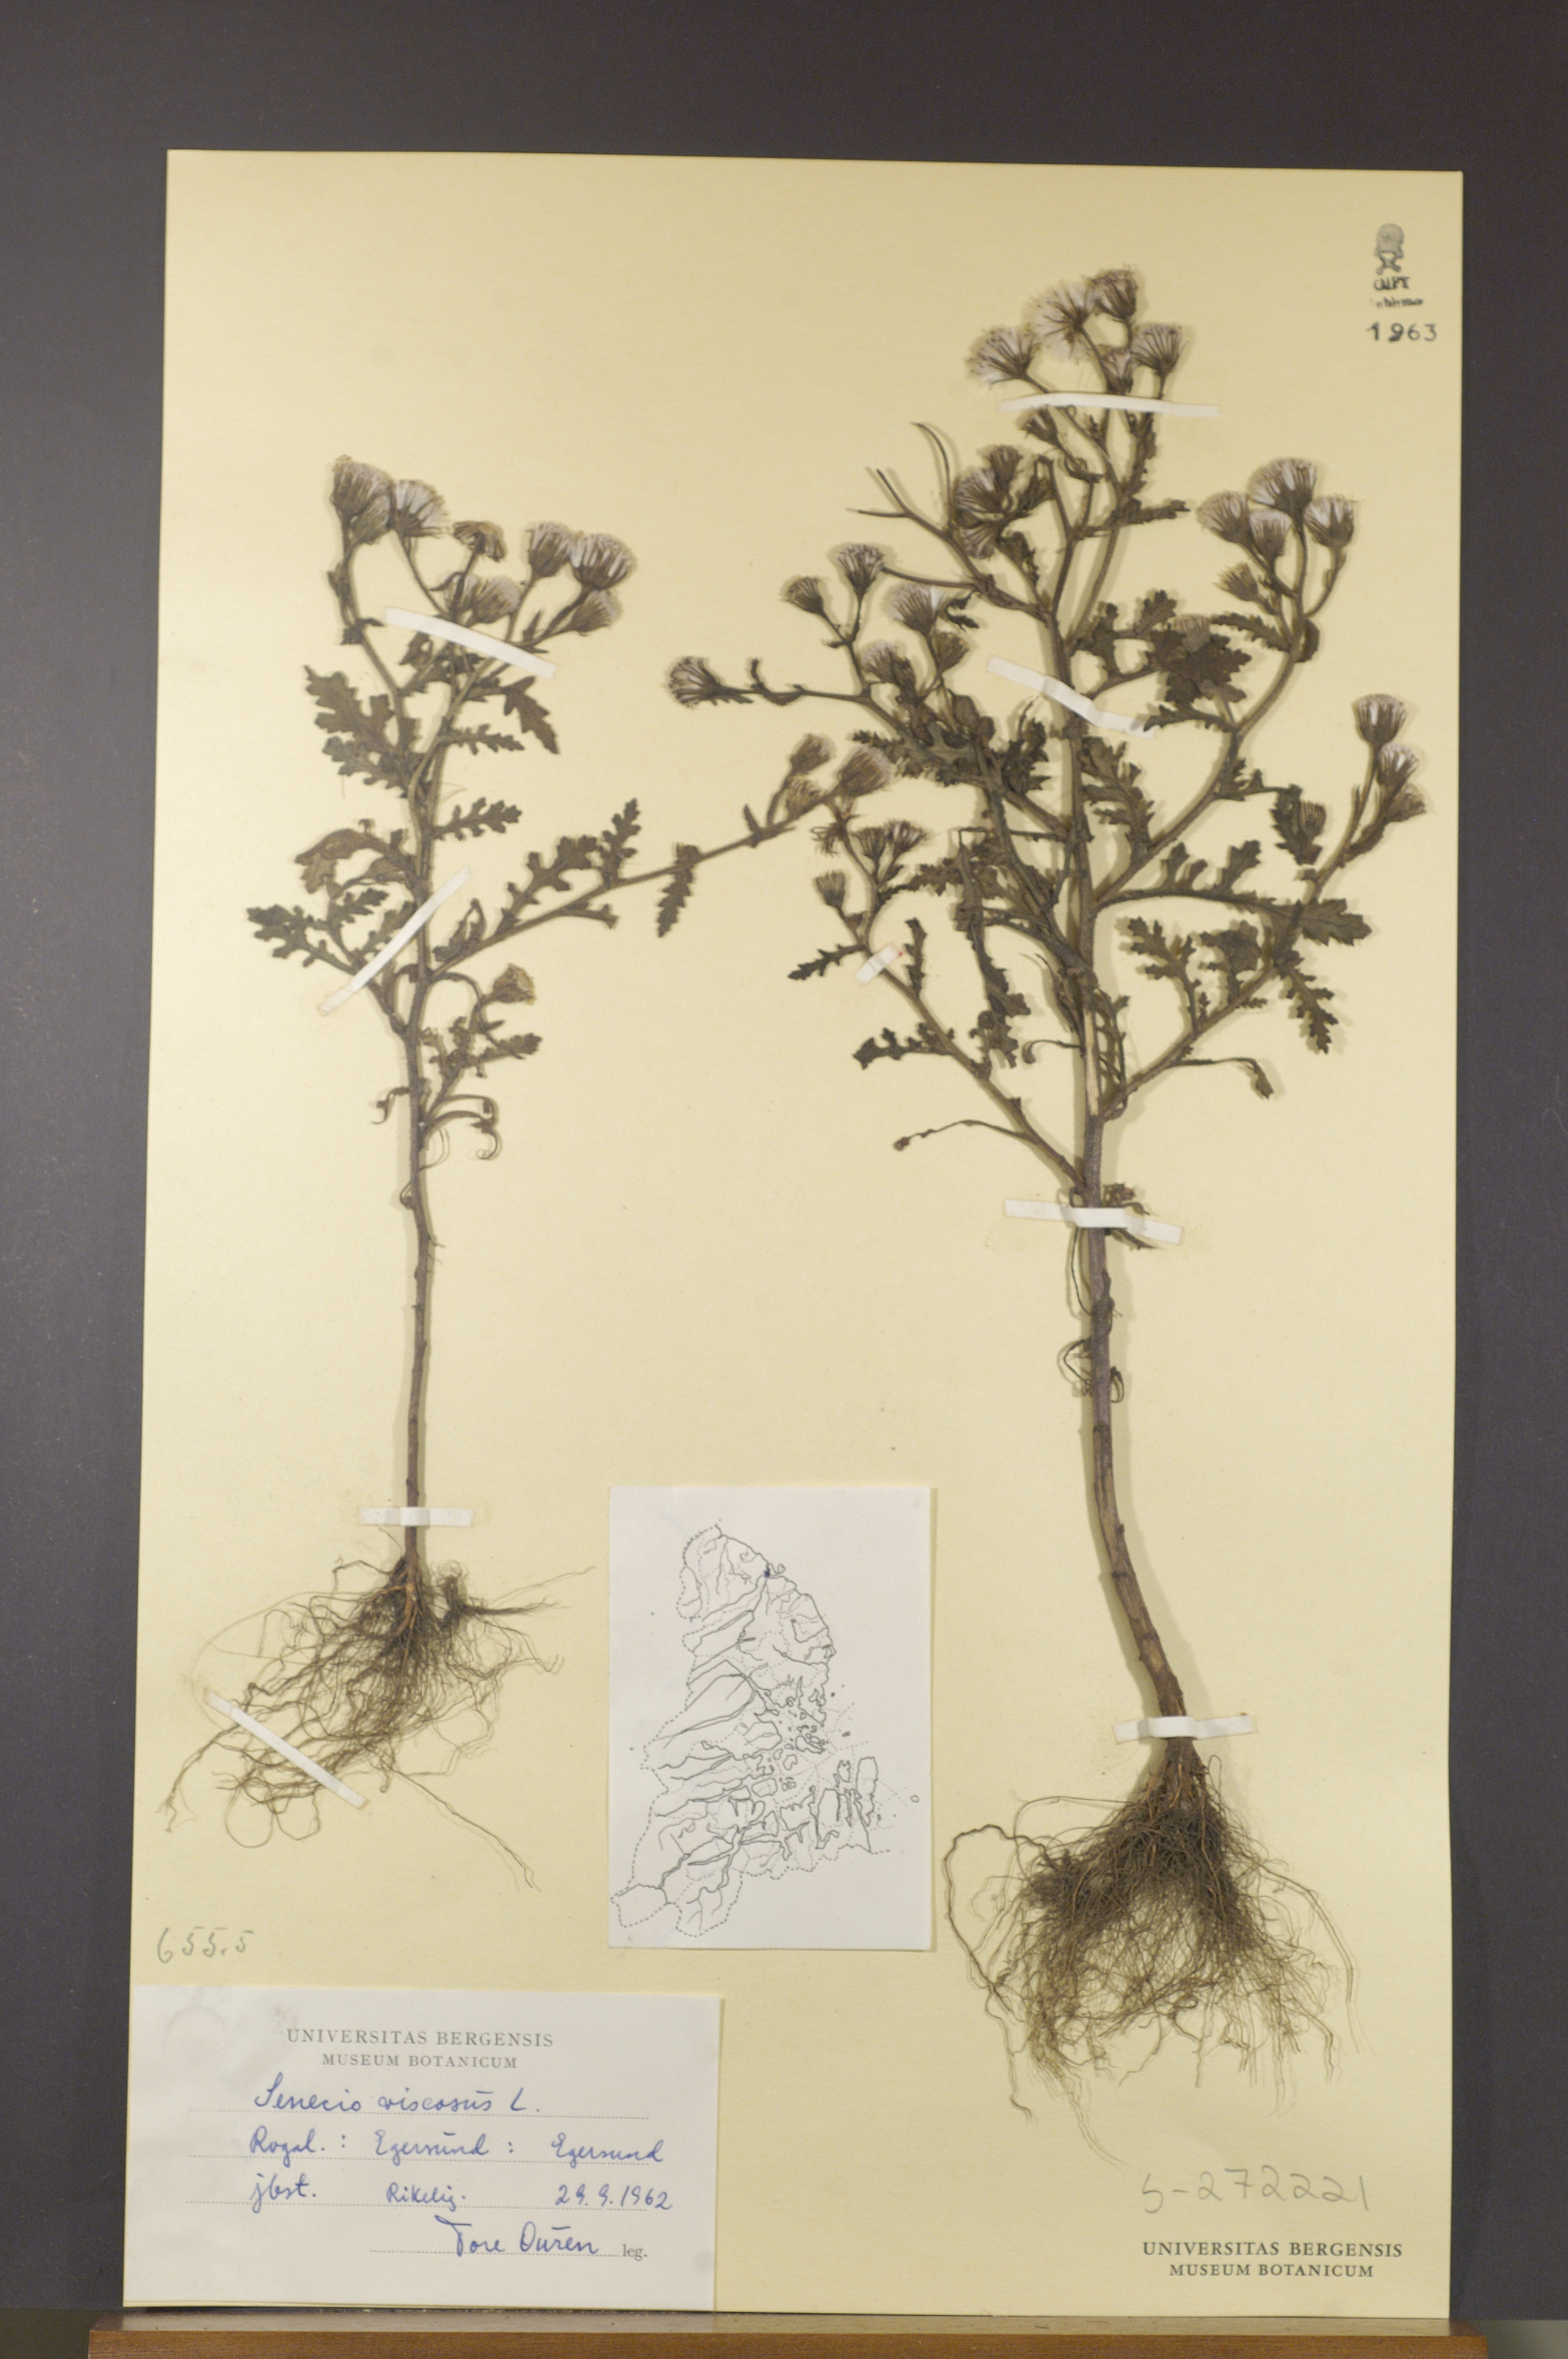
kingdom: Plantae
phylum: Tracheophyta
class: Magnoliopsida
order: Asterales
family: Asteraceae
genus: Senecio
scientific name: Senecio viscosus
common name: Sticky groundsel
